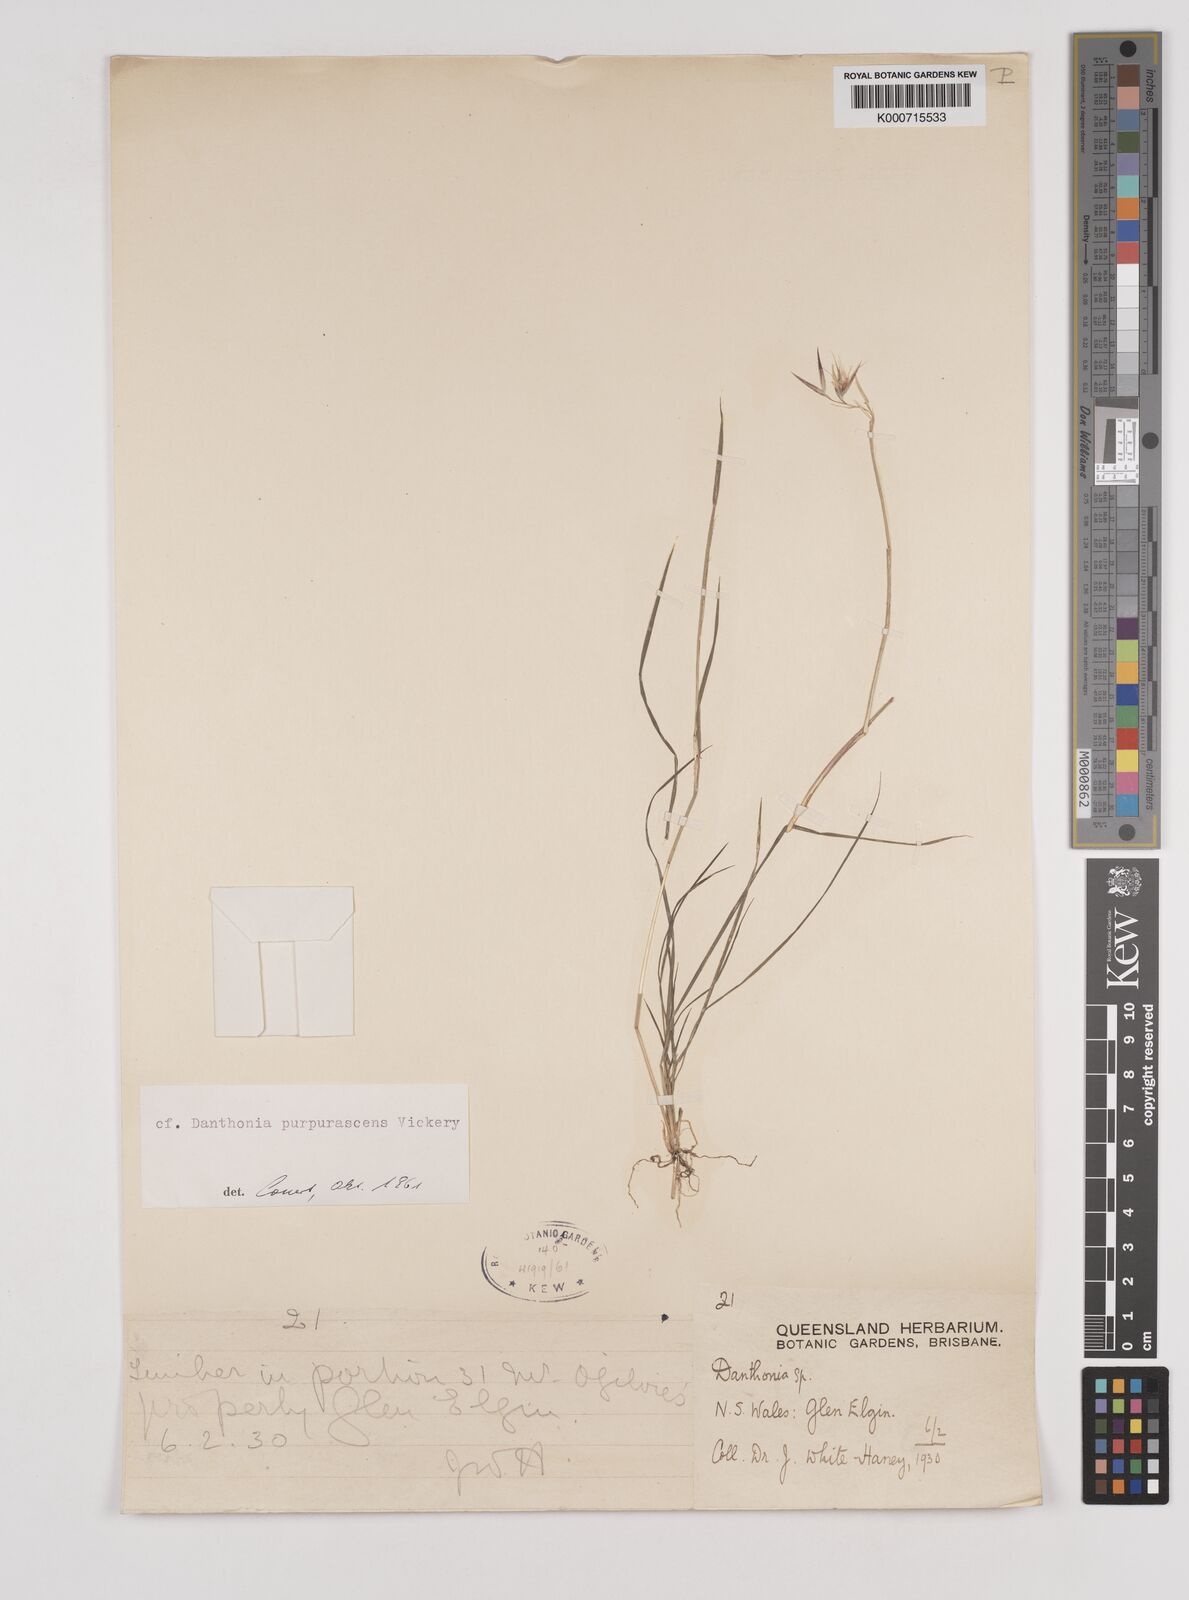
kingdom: Plantae
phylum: Tracheophyta
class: Liliopsida
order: Poales
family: Poaceae
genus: Rytidosperma
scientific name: Rytidosperma tenuius
